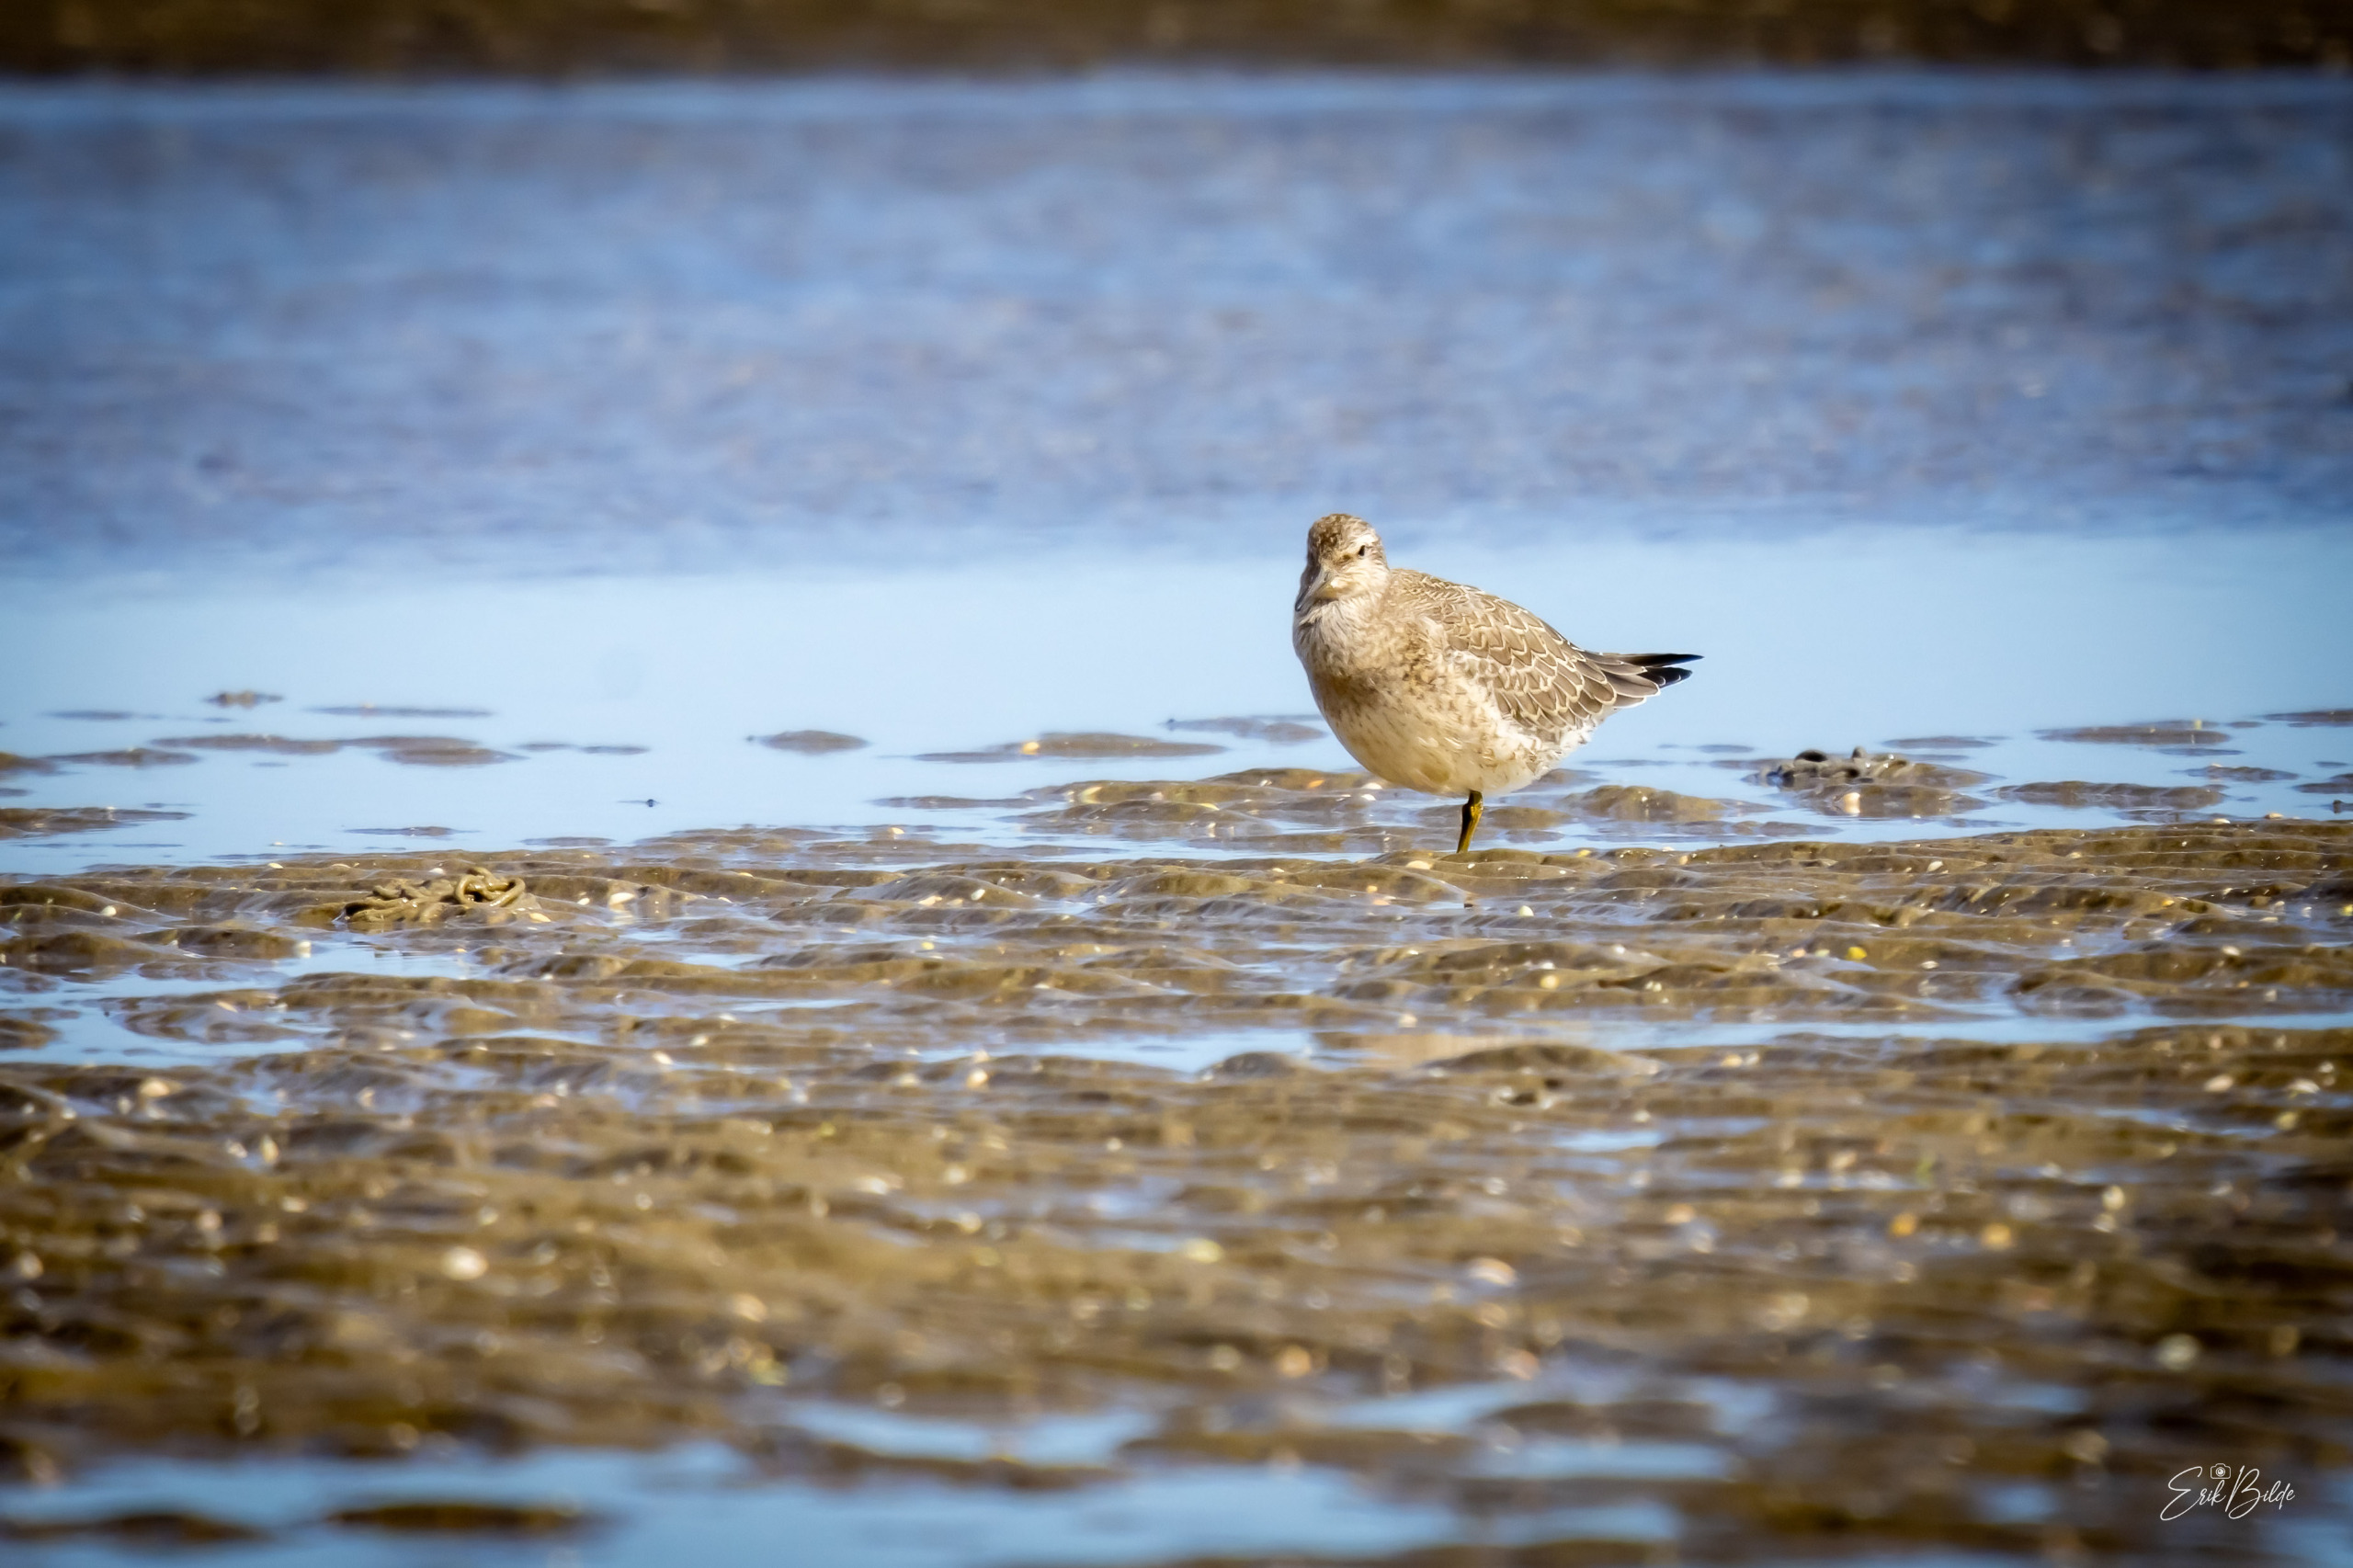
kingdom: Animalia
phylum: Chordata
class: Aves
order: Charadriiformes
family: Scolopacidae
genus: Calidris
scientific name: Calidris canutus
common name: Islandsk ryle
